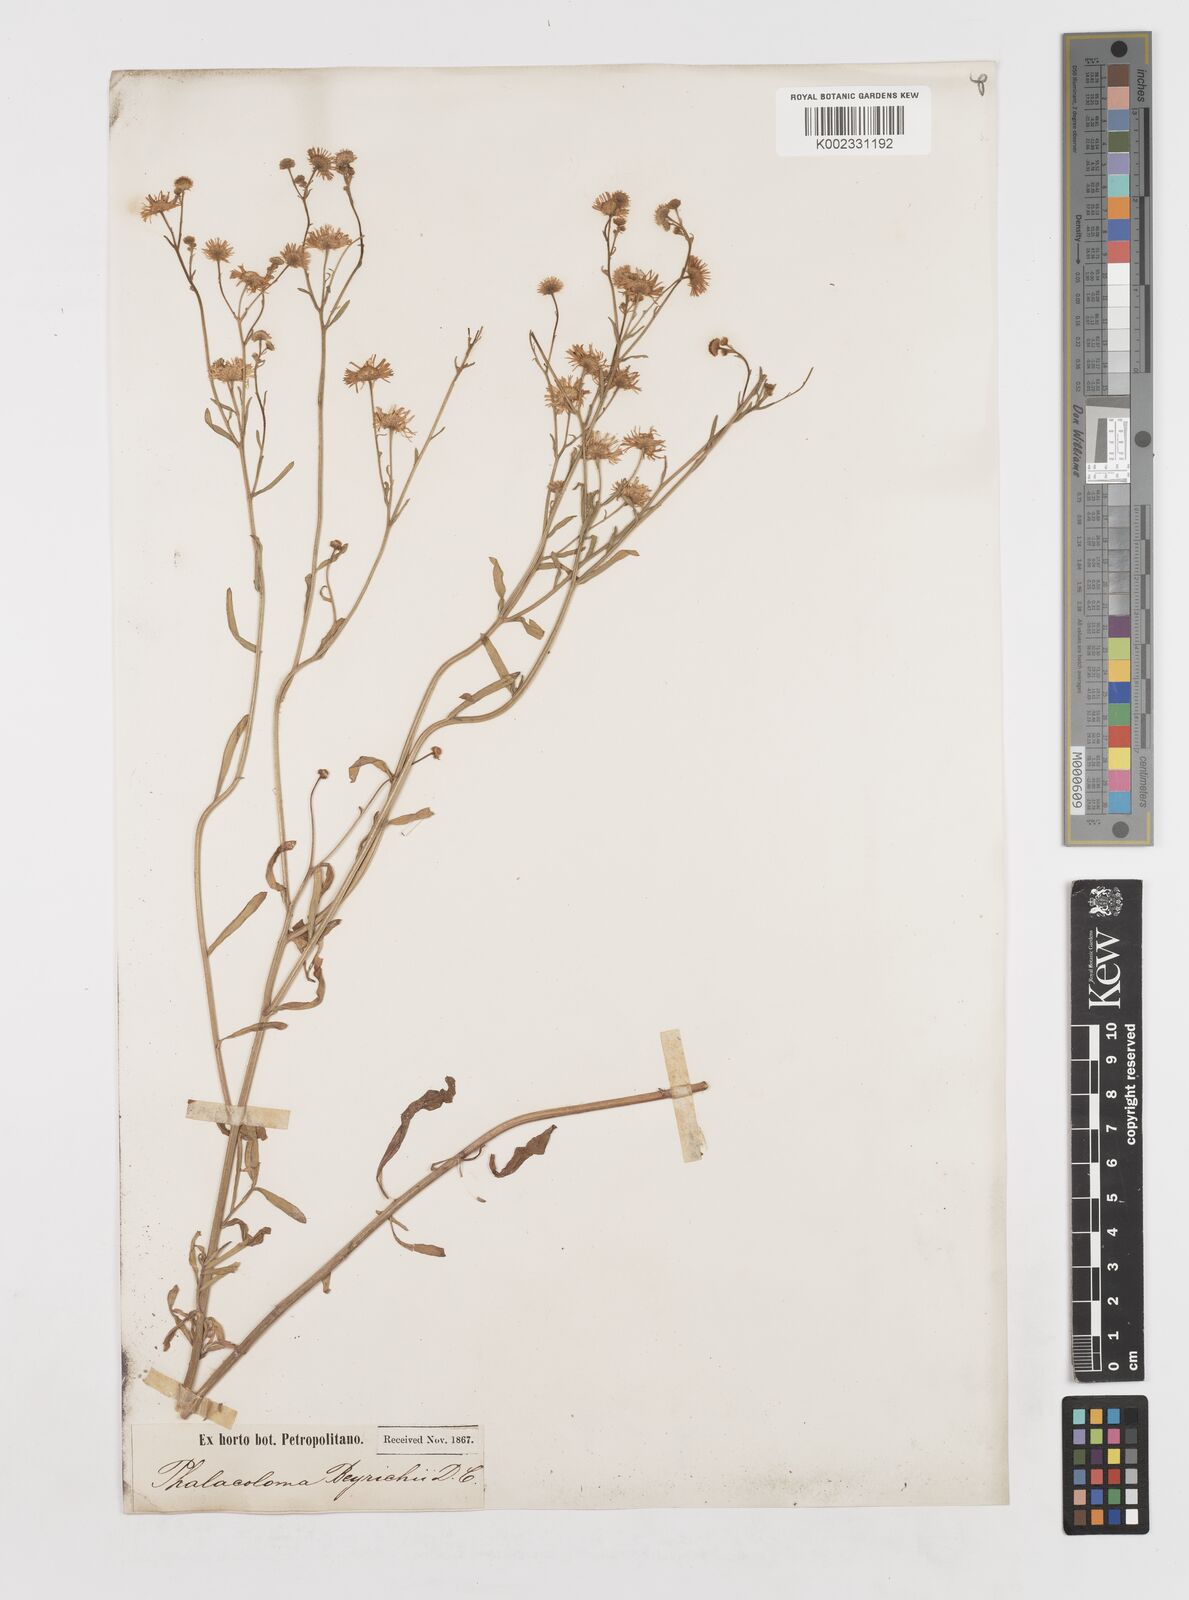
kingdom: Plantae
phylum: Tracheophyta
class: Magnoliopsida
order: Asterales
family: Asteraceae
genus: Erigeron
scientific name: Erigeron strigosus
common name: Common eastern fleabane
